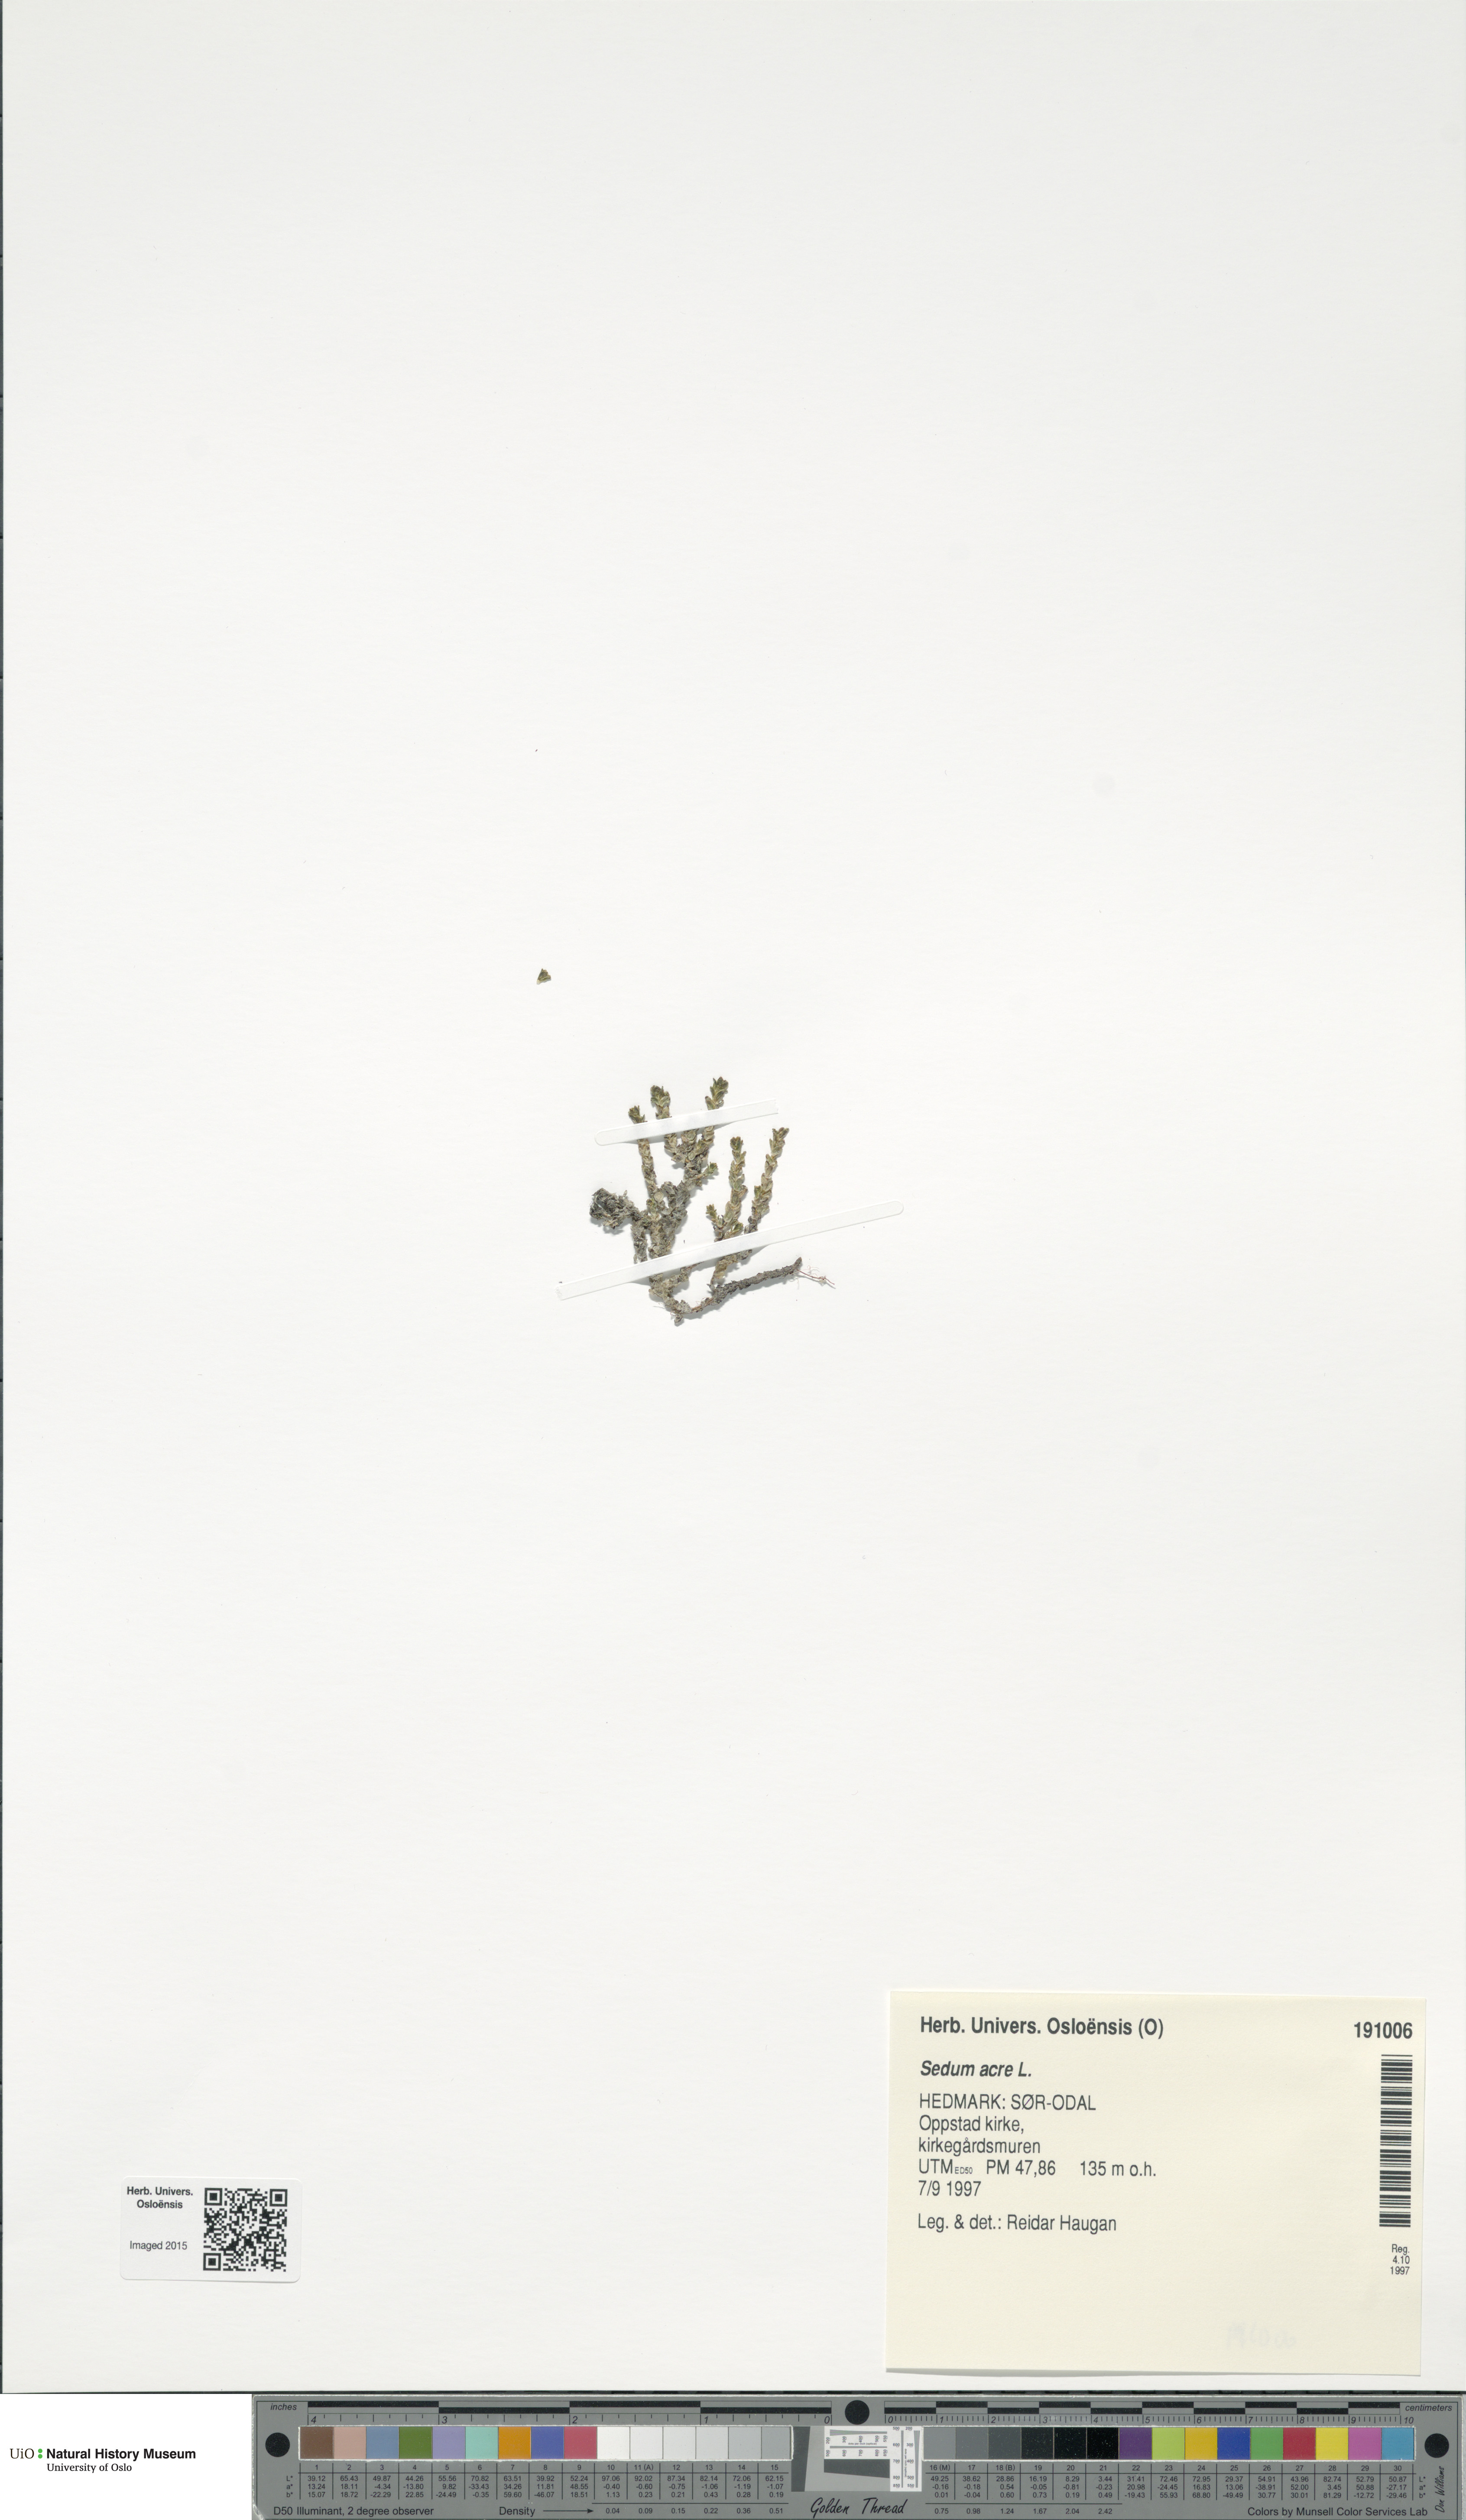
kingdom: Plantae
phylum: Tracheophyta
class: Magnoliopsida
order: Saxifragales
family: Crassulaceae
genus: Sedum
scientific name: Sedum acre
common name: Biting stonecrop
